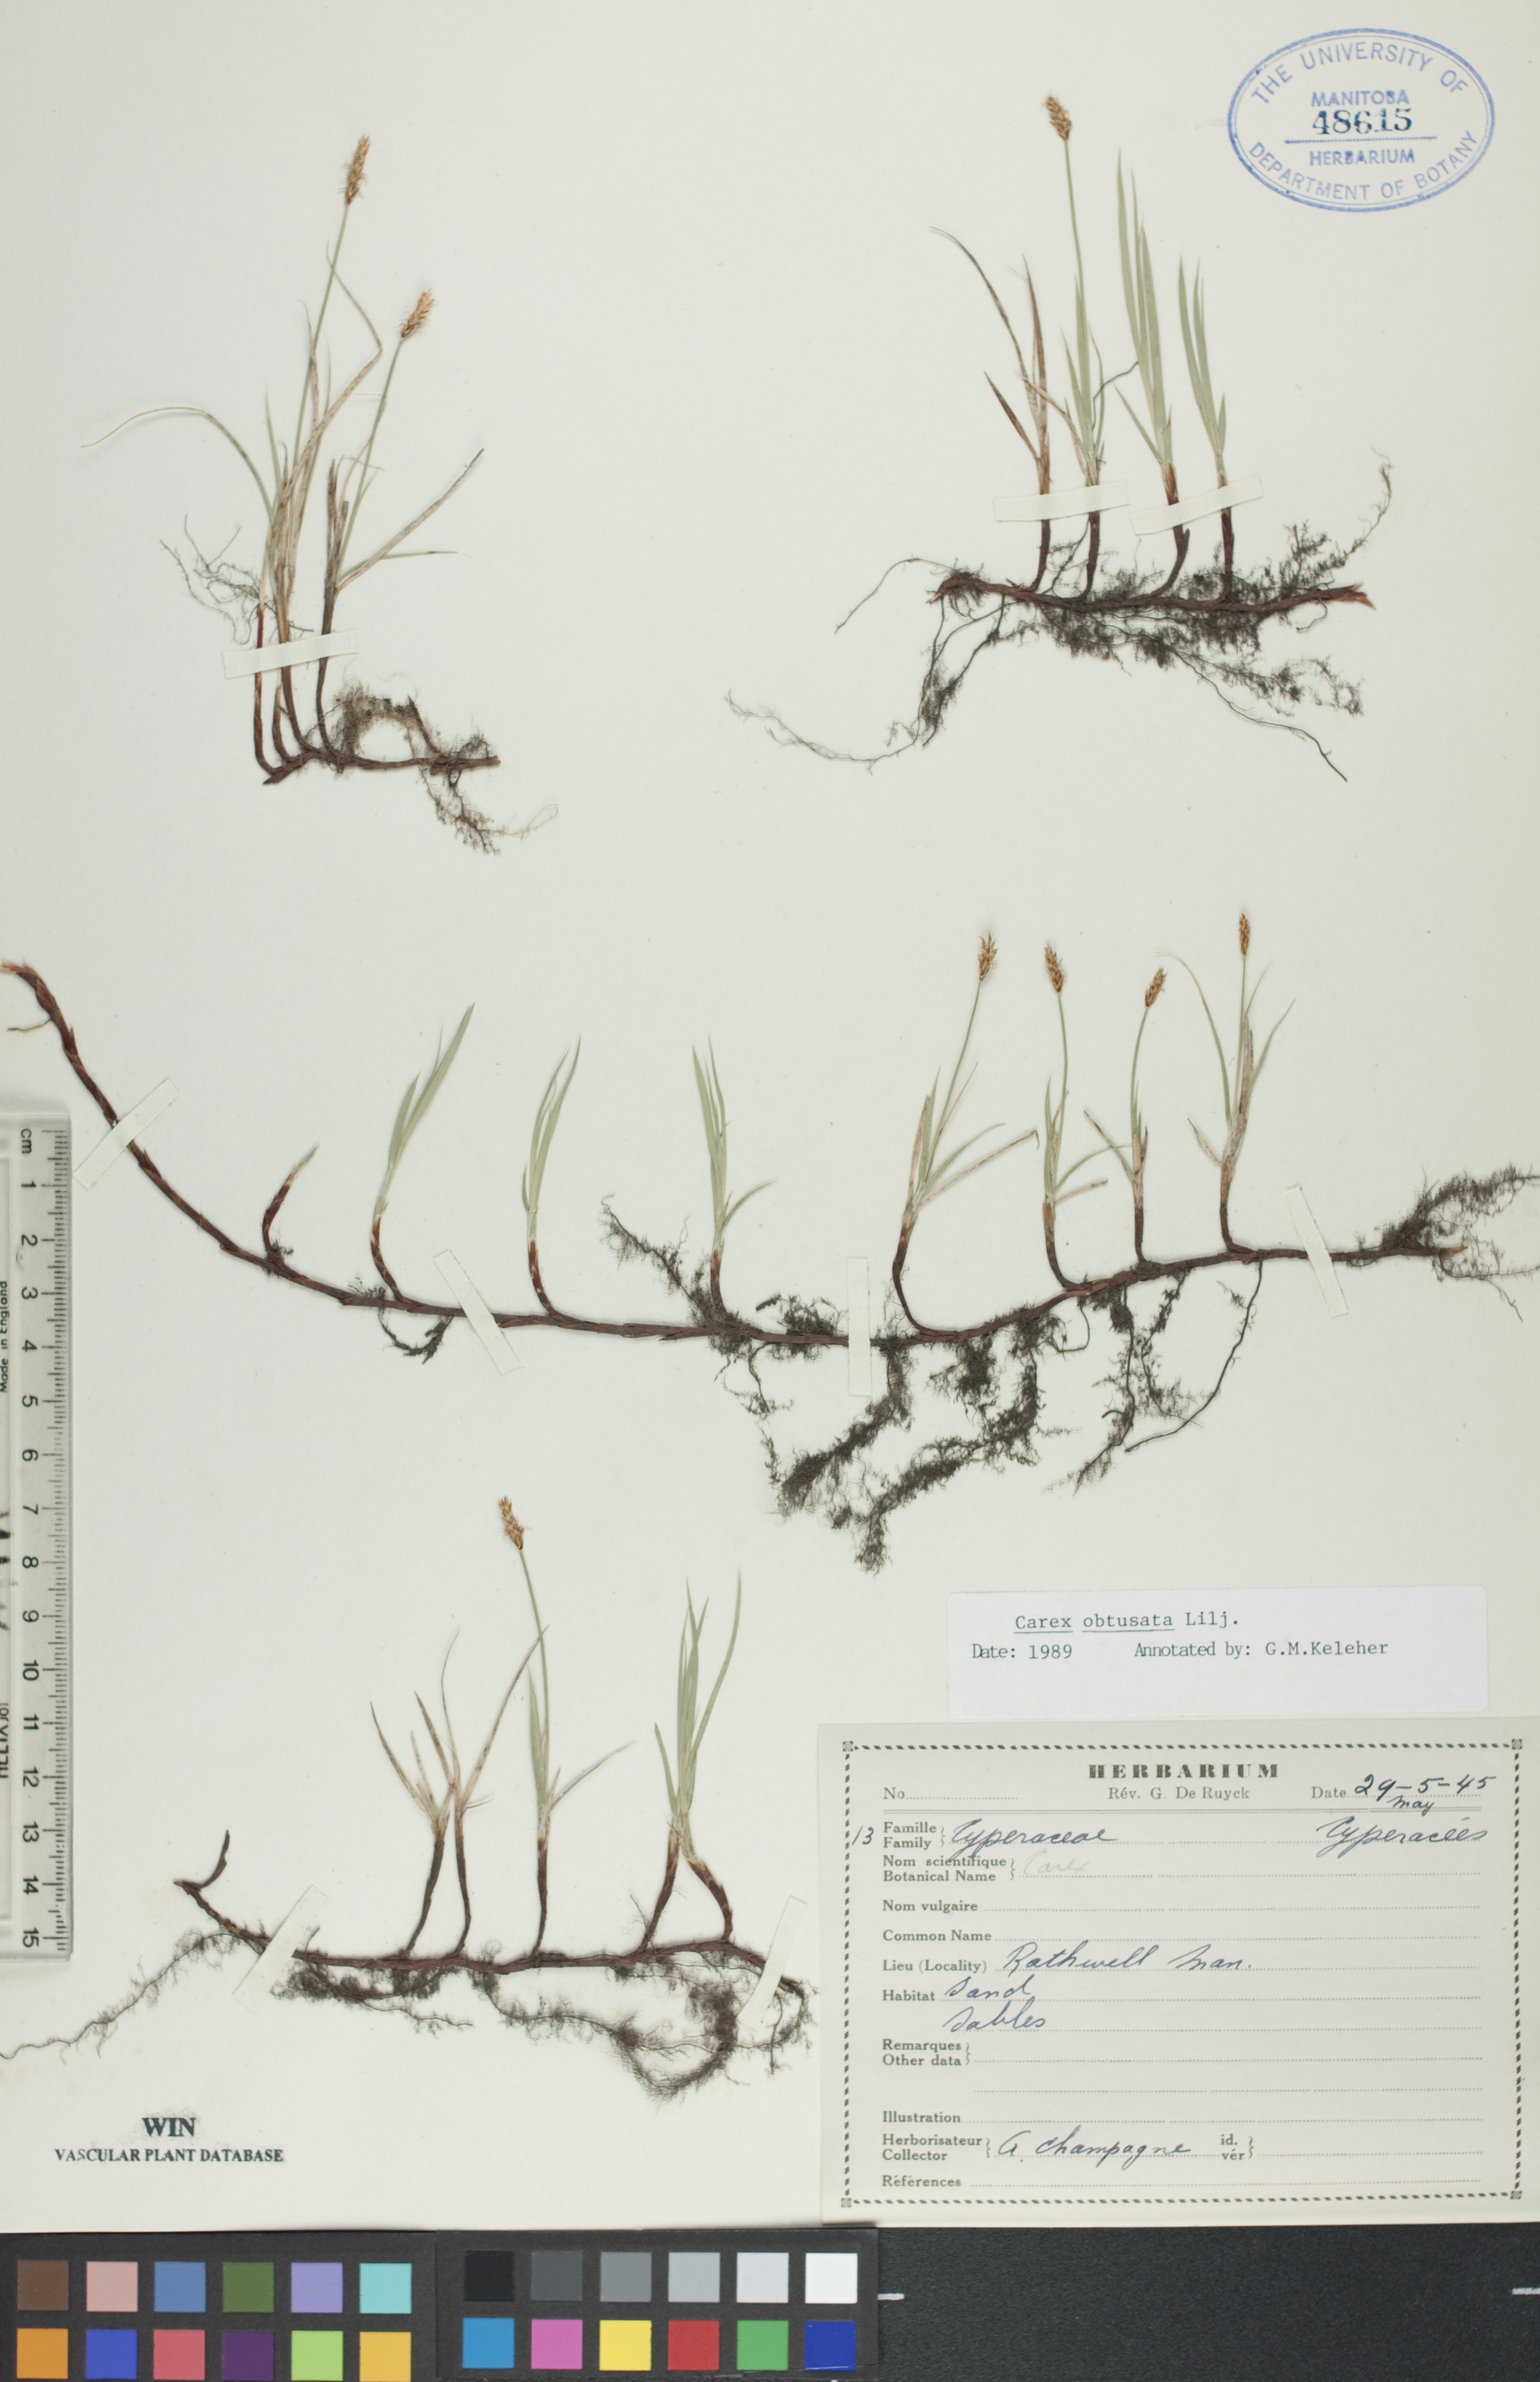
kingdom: Plantae
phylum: Tracheophyta
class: Liliopsida
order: Poales
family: Cyperaceae
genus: Carex
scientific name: Carex obtusata
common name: Blunt sedge
